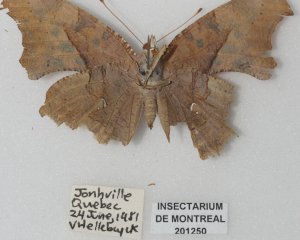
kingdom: Animalia
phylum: Arthropoda
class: Insecta
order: Lepidoptera
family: Nymphalidae
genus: Polygonia
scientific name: Polygonia interrogationis
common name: Question Mark
